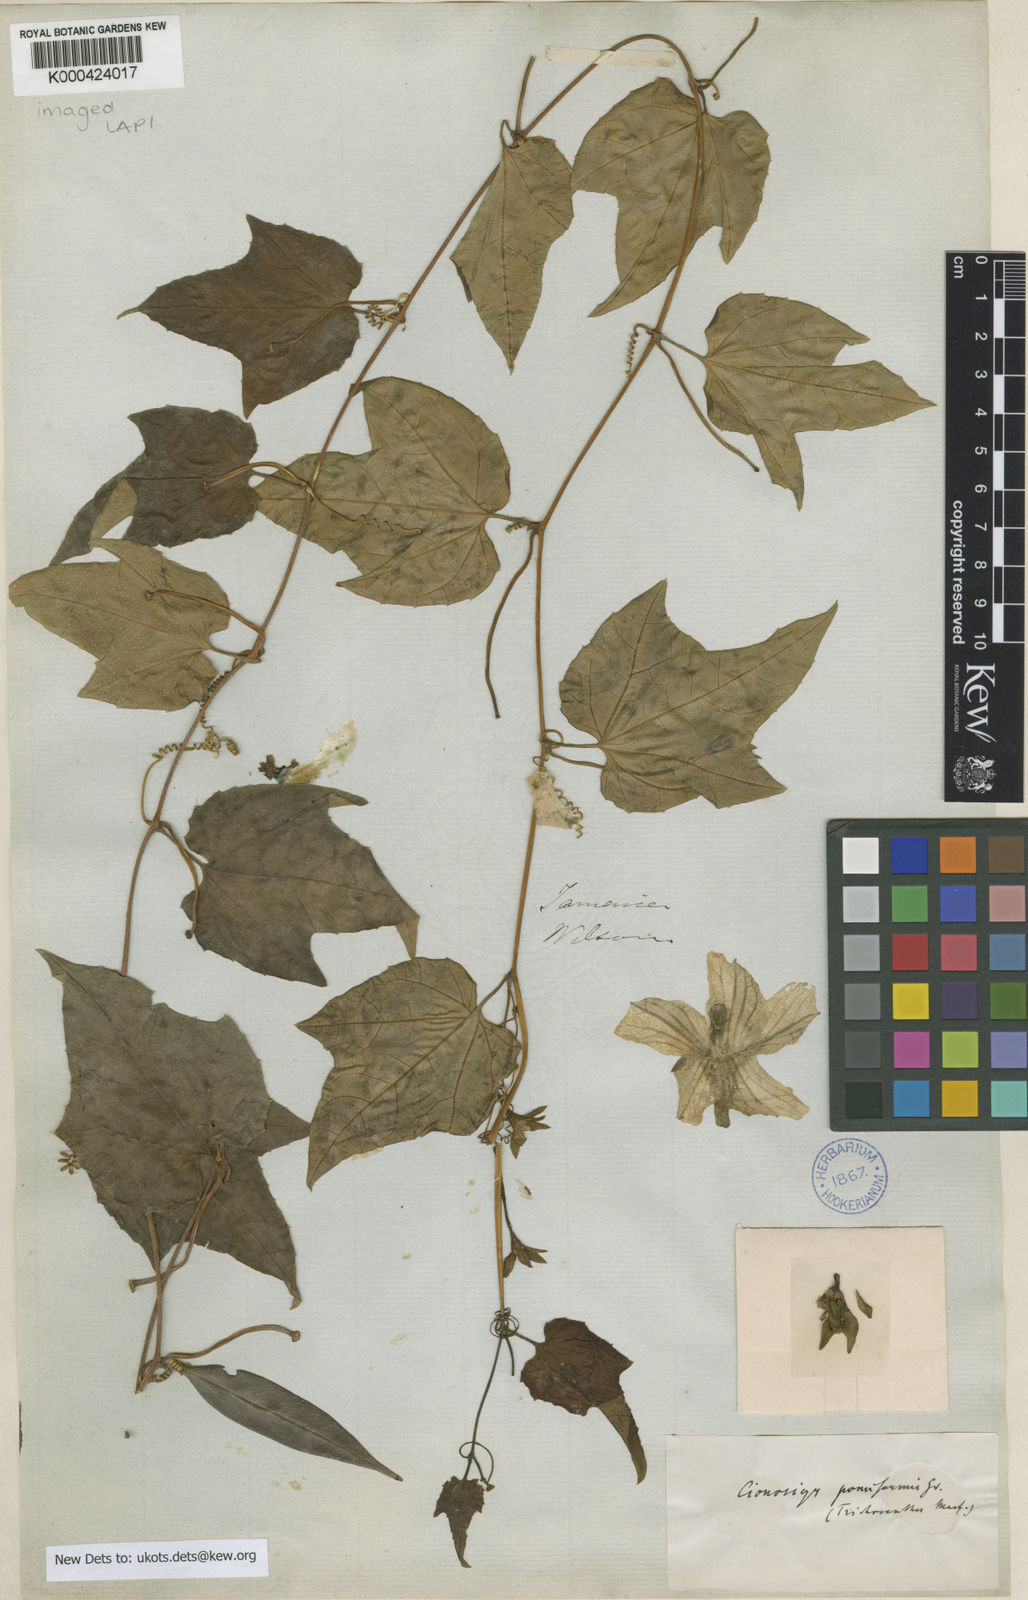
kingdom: Plantae
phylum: Tracheophyta
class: Magnoliopsida
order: Cucurbitales
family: Cucurbitaceae
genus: Cionosicys
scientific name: Cionosicys pomiformis
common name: Duppy gourd
